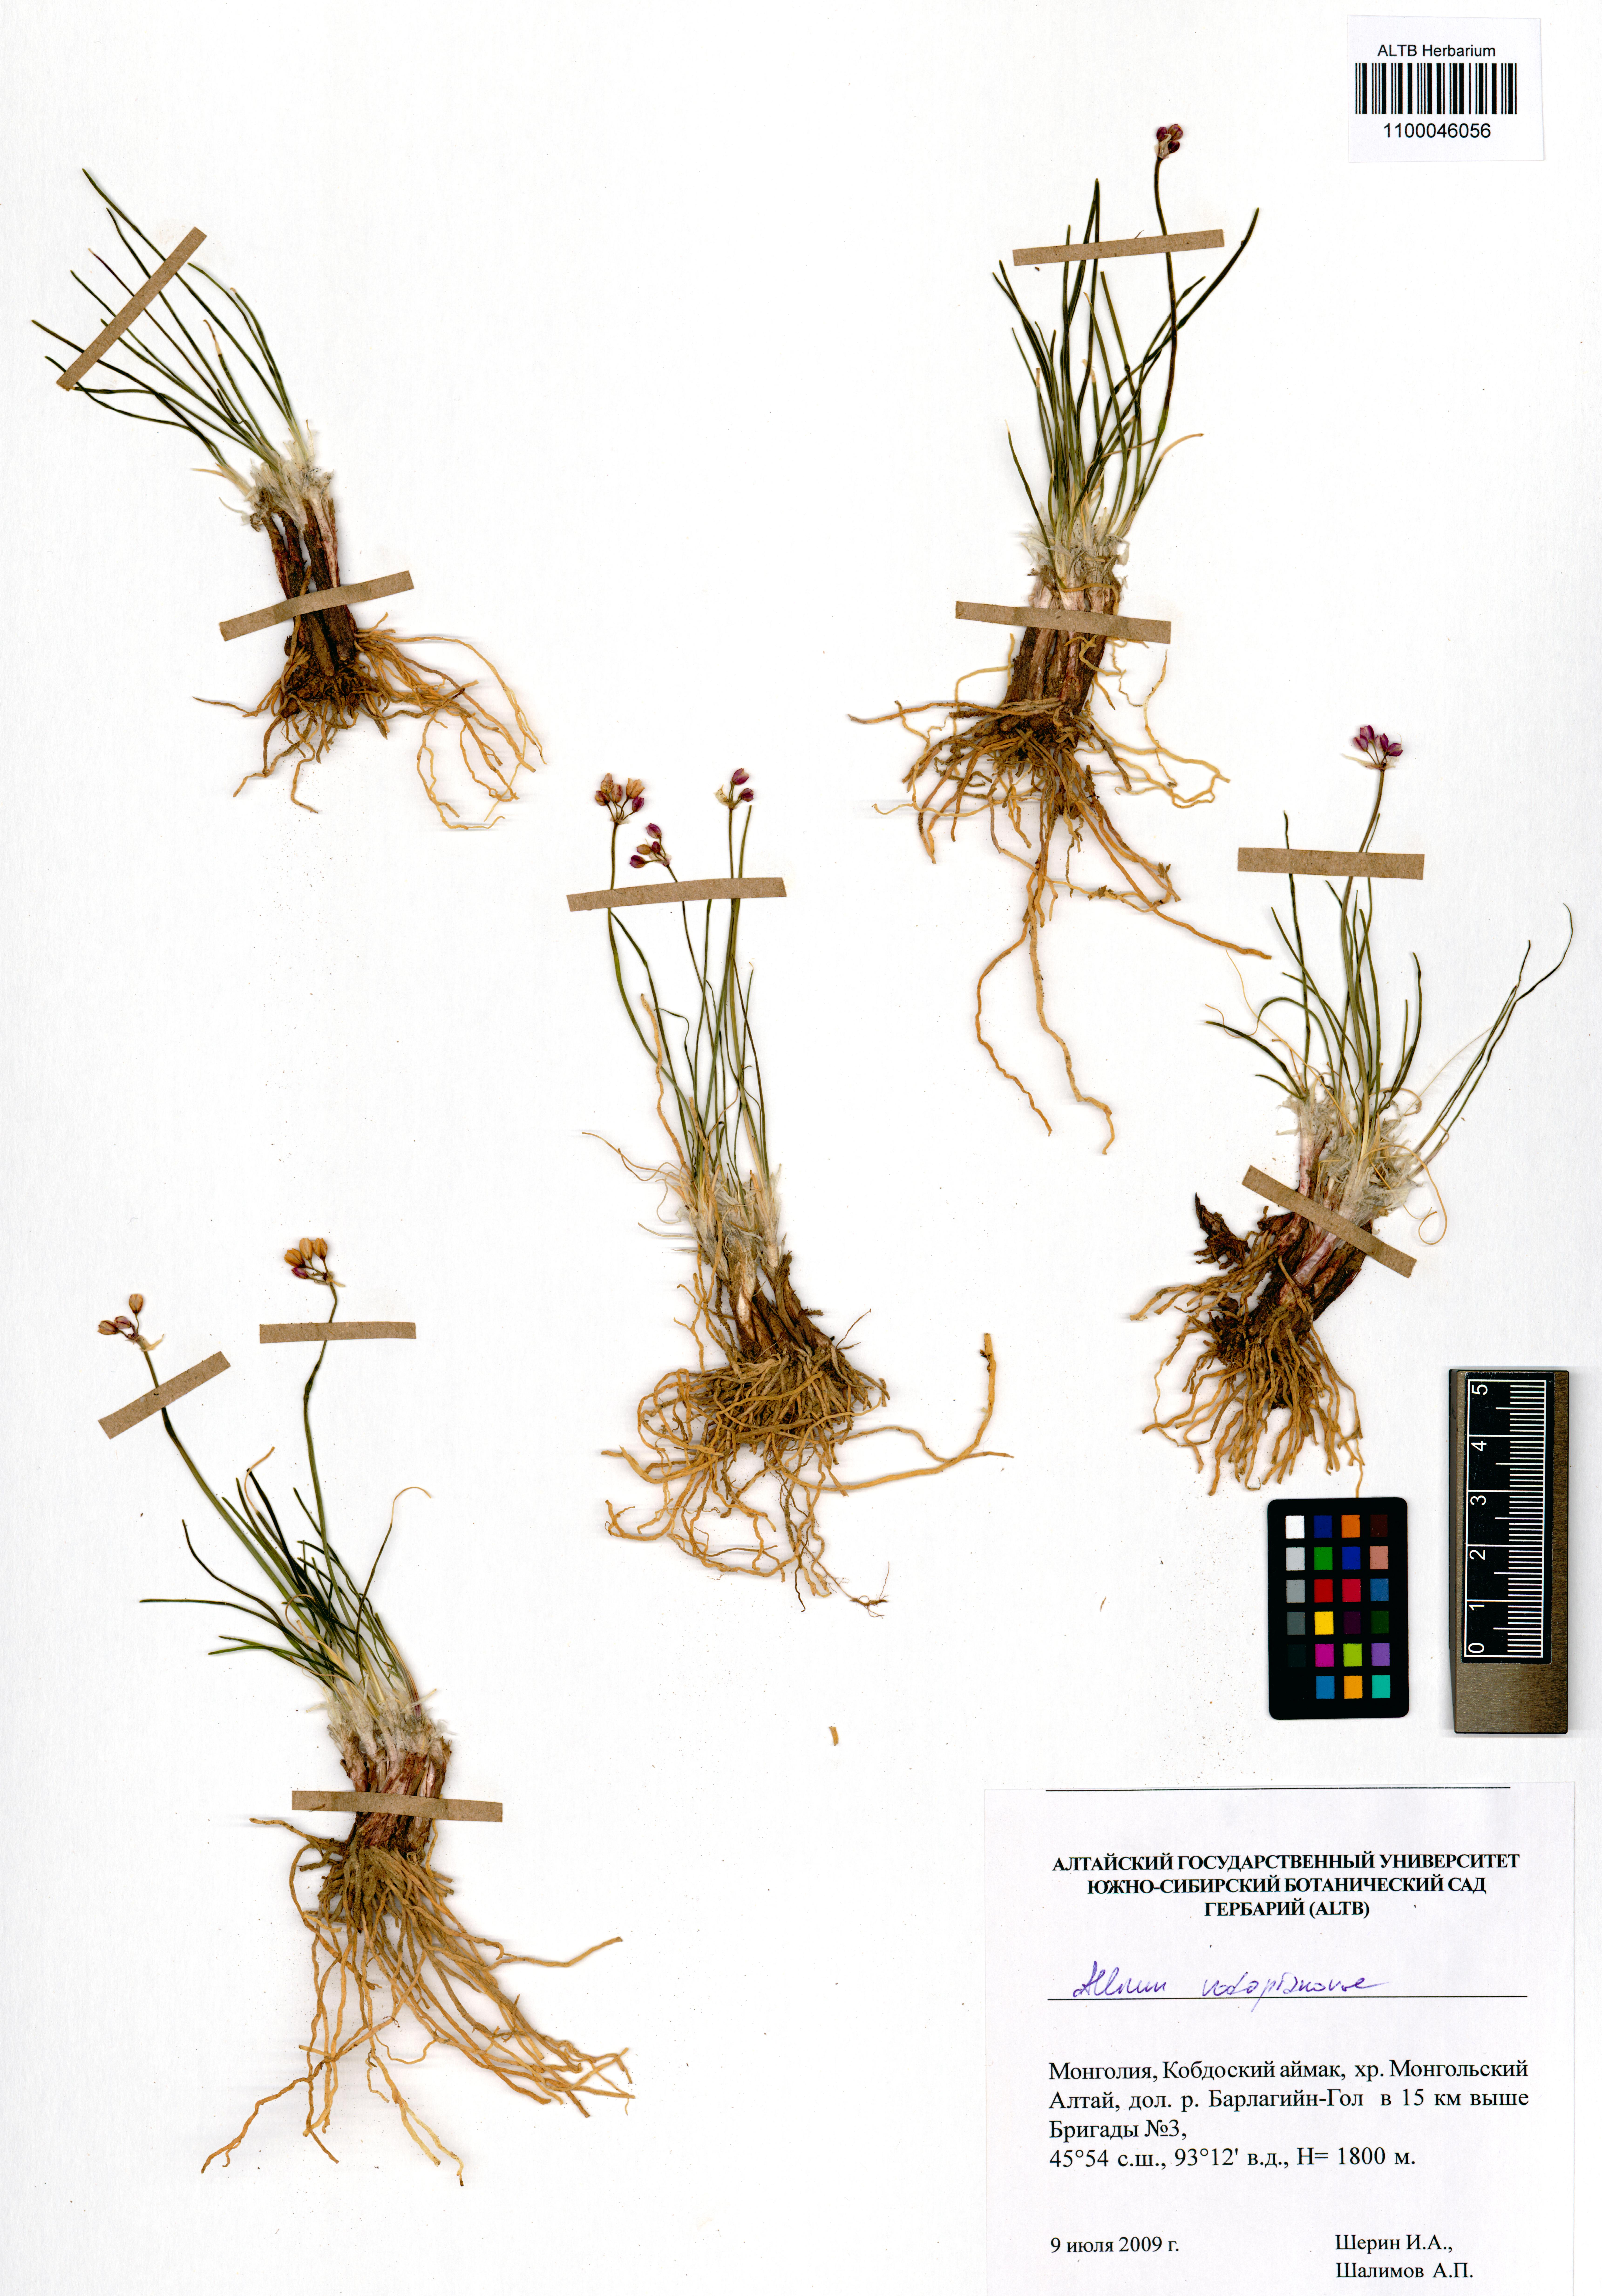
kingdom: Plantae
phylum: Tracheophyta
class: Liliopsida
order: Asparagales
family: Amaryllidaceae
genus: Allium
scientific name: Allium vodopjanovae
